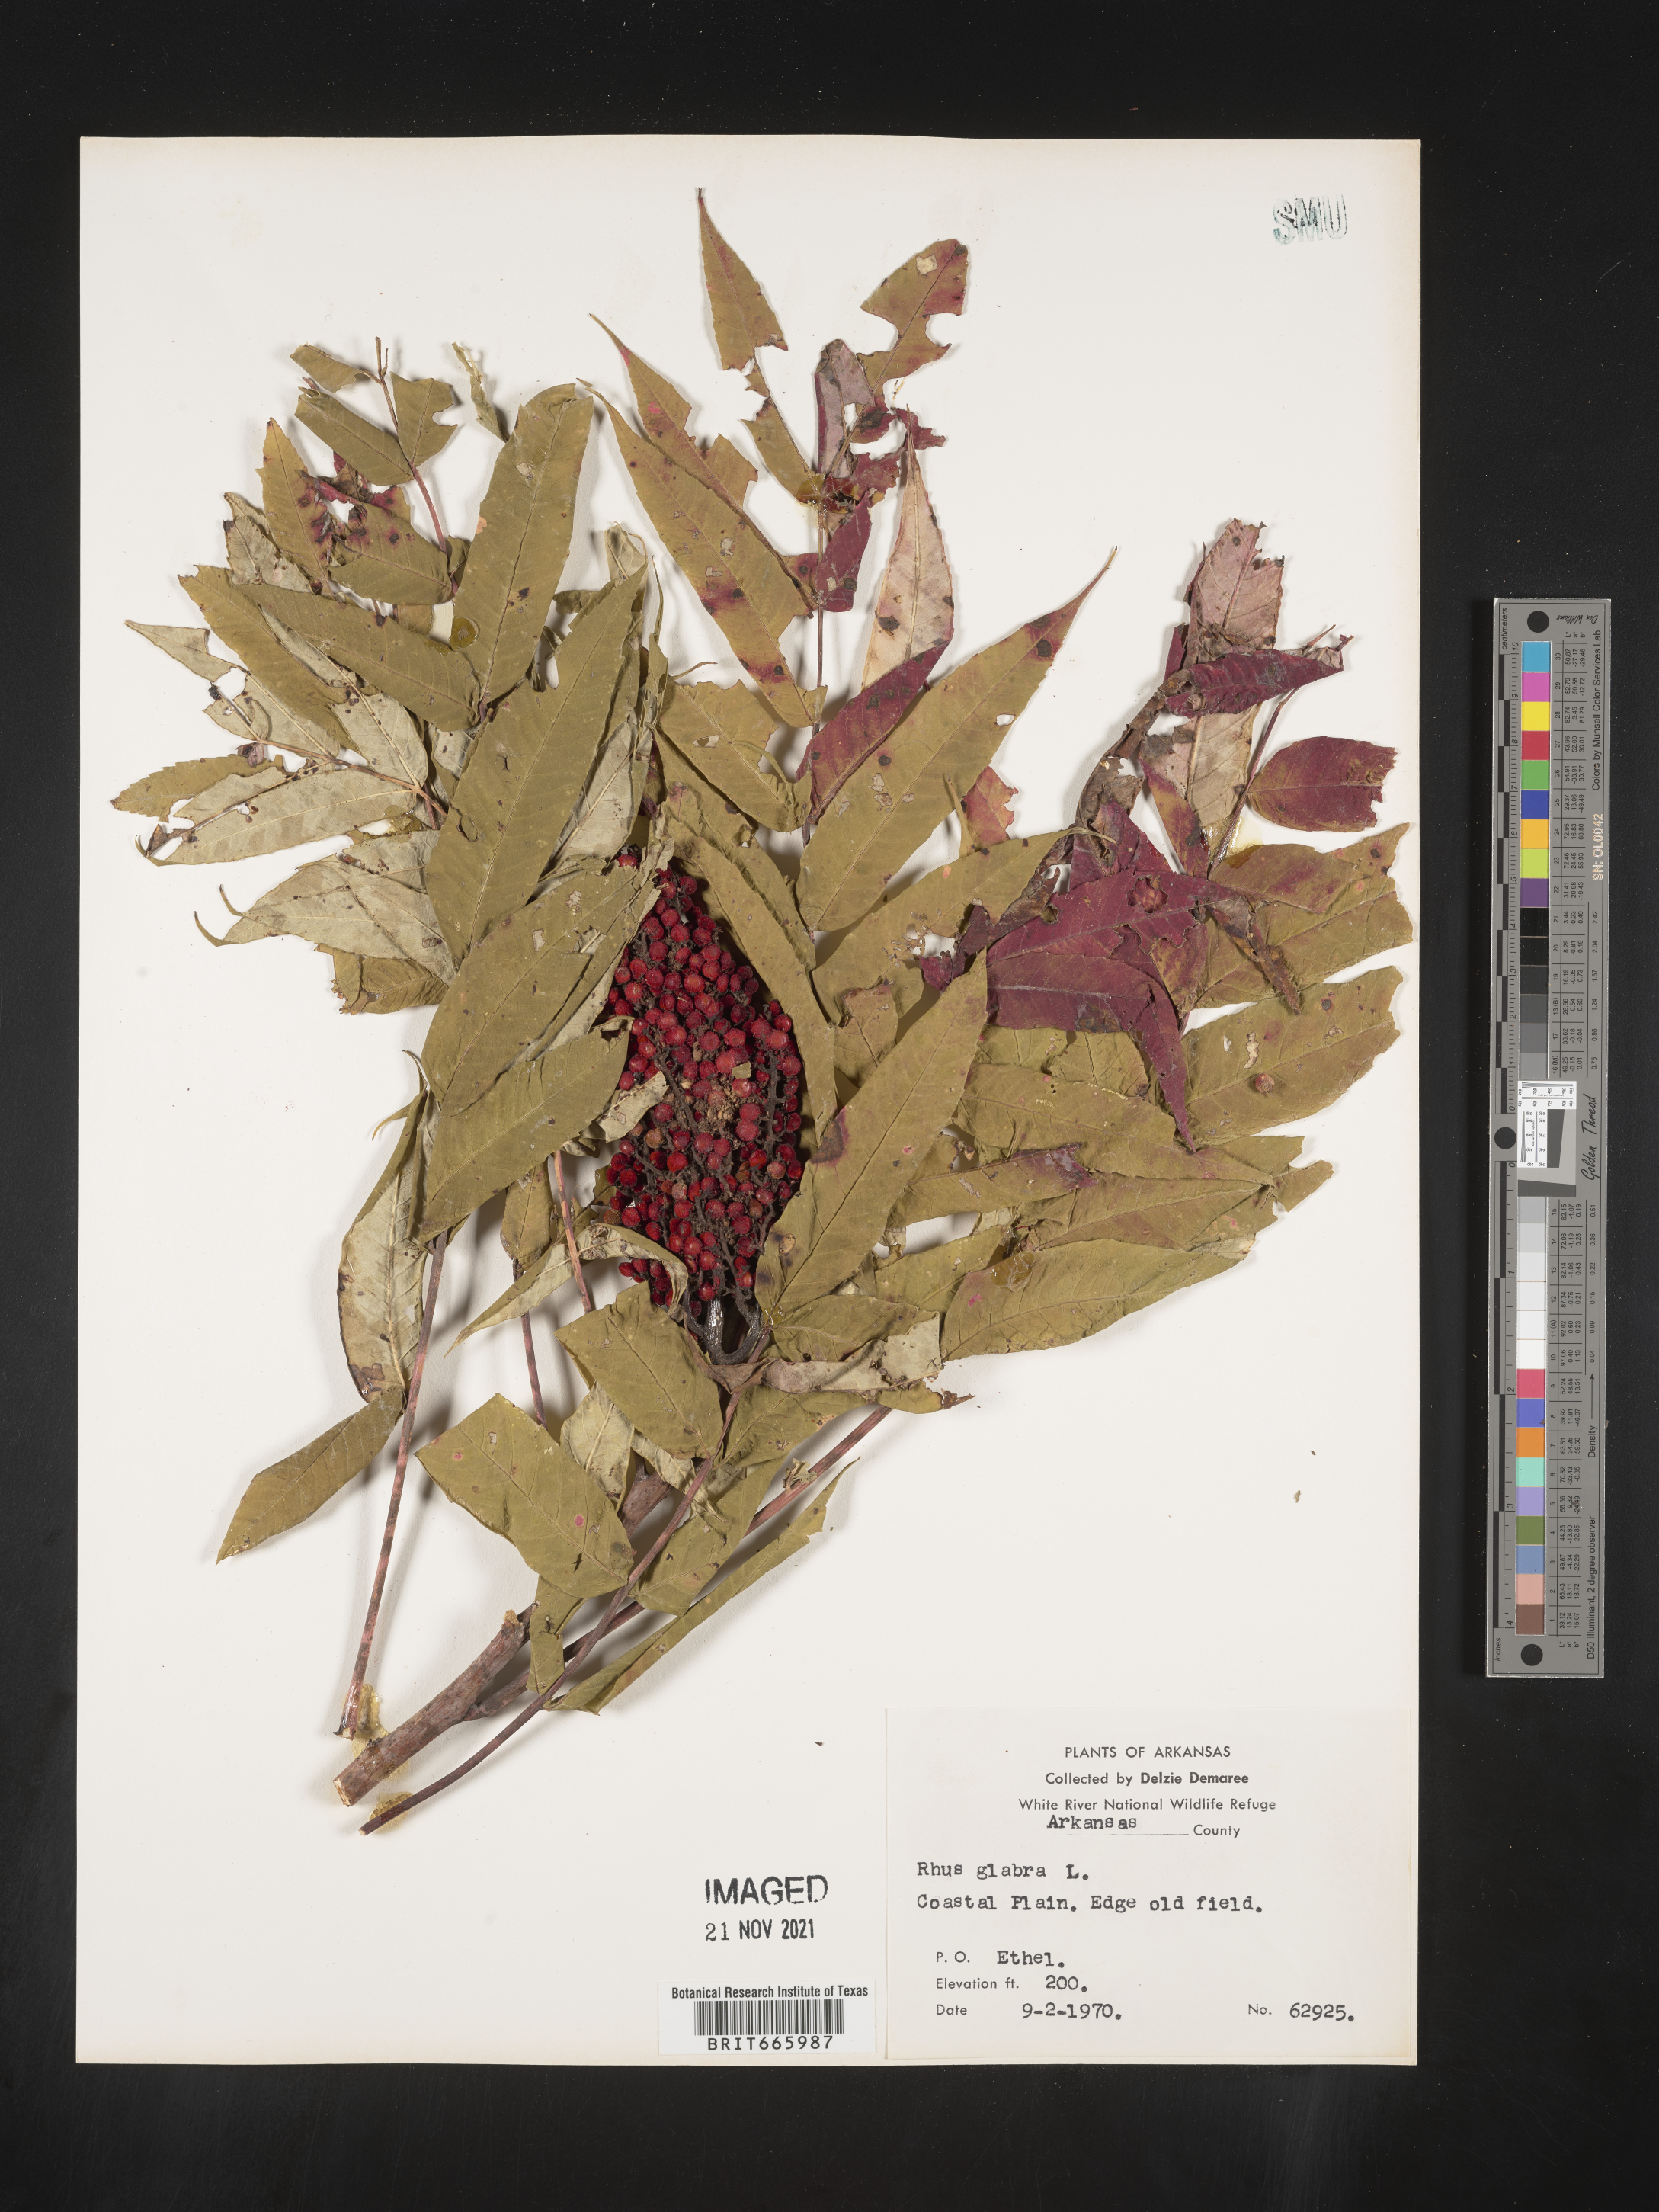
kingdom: Plantae
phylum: Tracheophyta
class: Magnoliopsida
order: Sapindales
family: Anacardiaceae
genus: Rhus
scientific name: Rhus glabra
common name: Scarlet sumac
